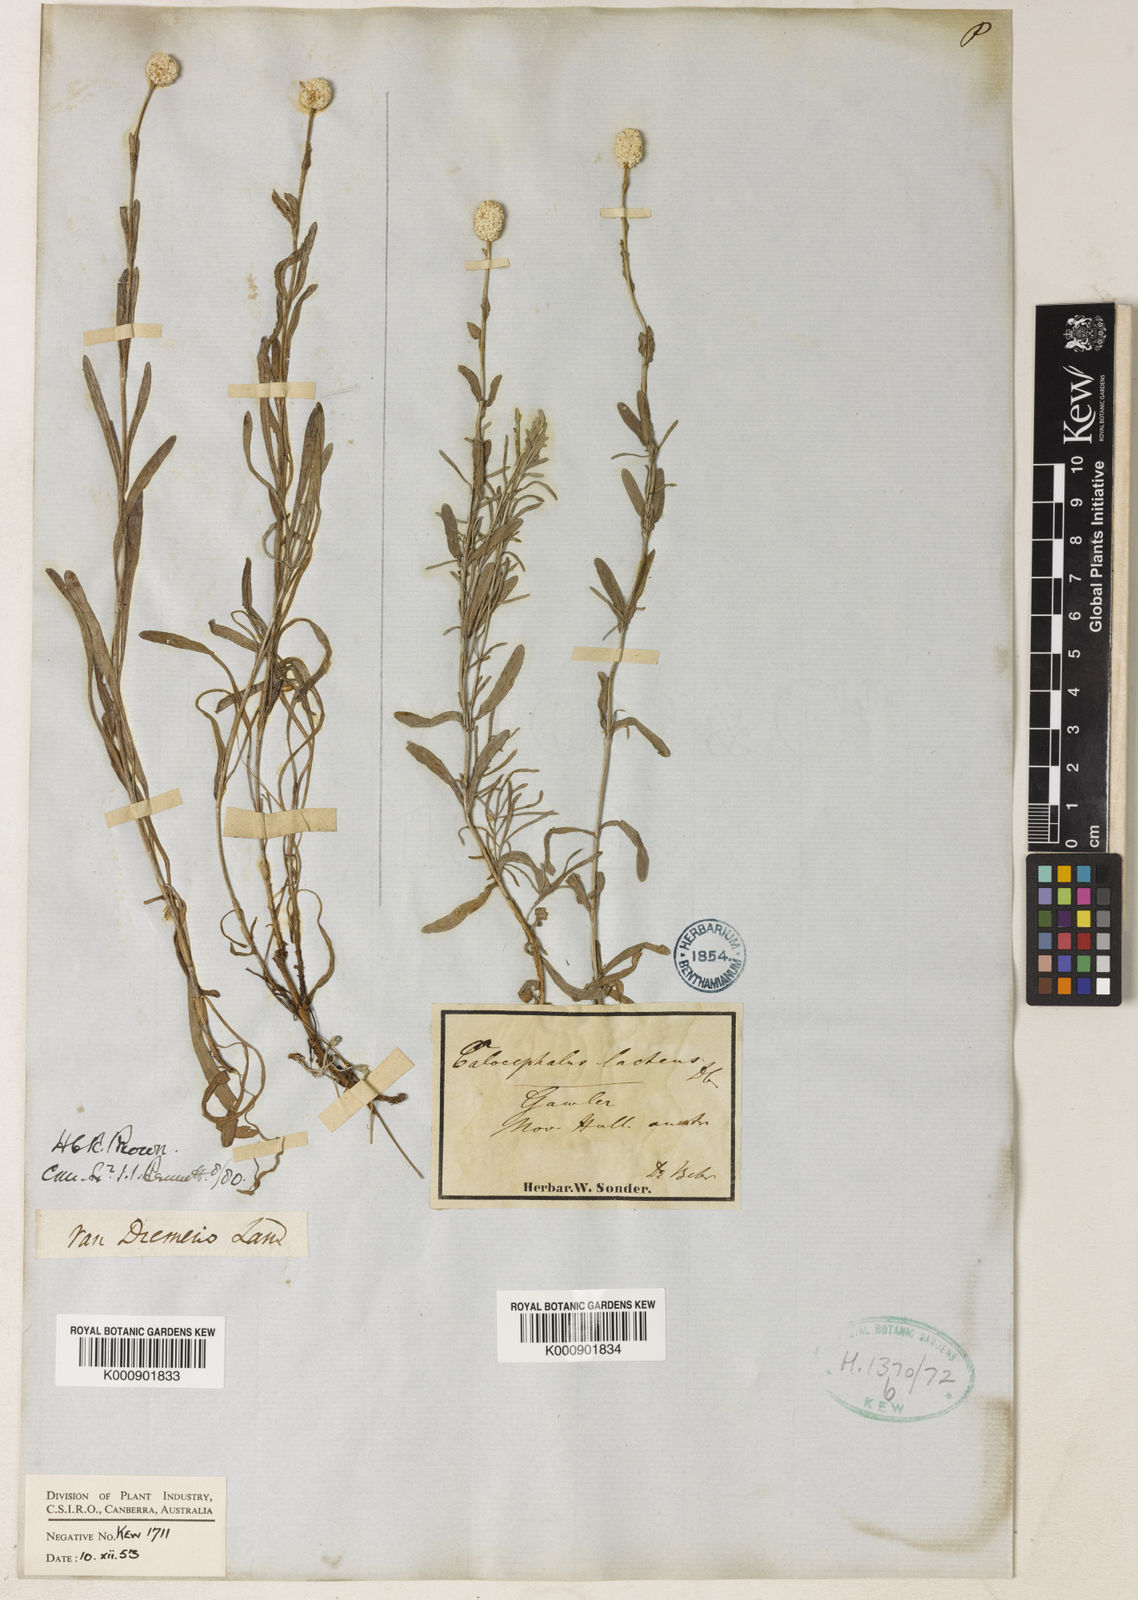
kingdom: Plantae
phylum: Tracheophyta
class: Magnoliopsida
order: Asterales
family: Asteraceae
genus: Calocephalus
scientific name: Calocephalus
